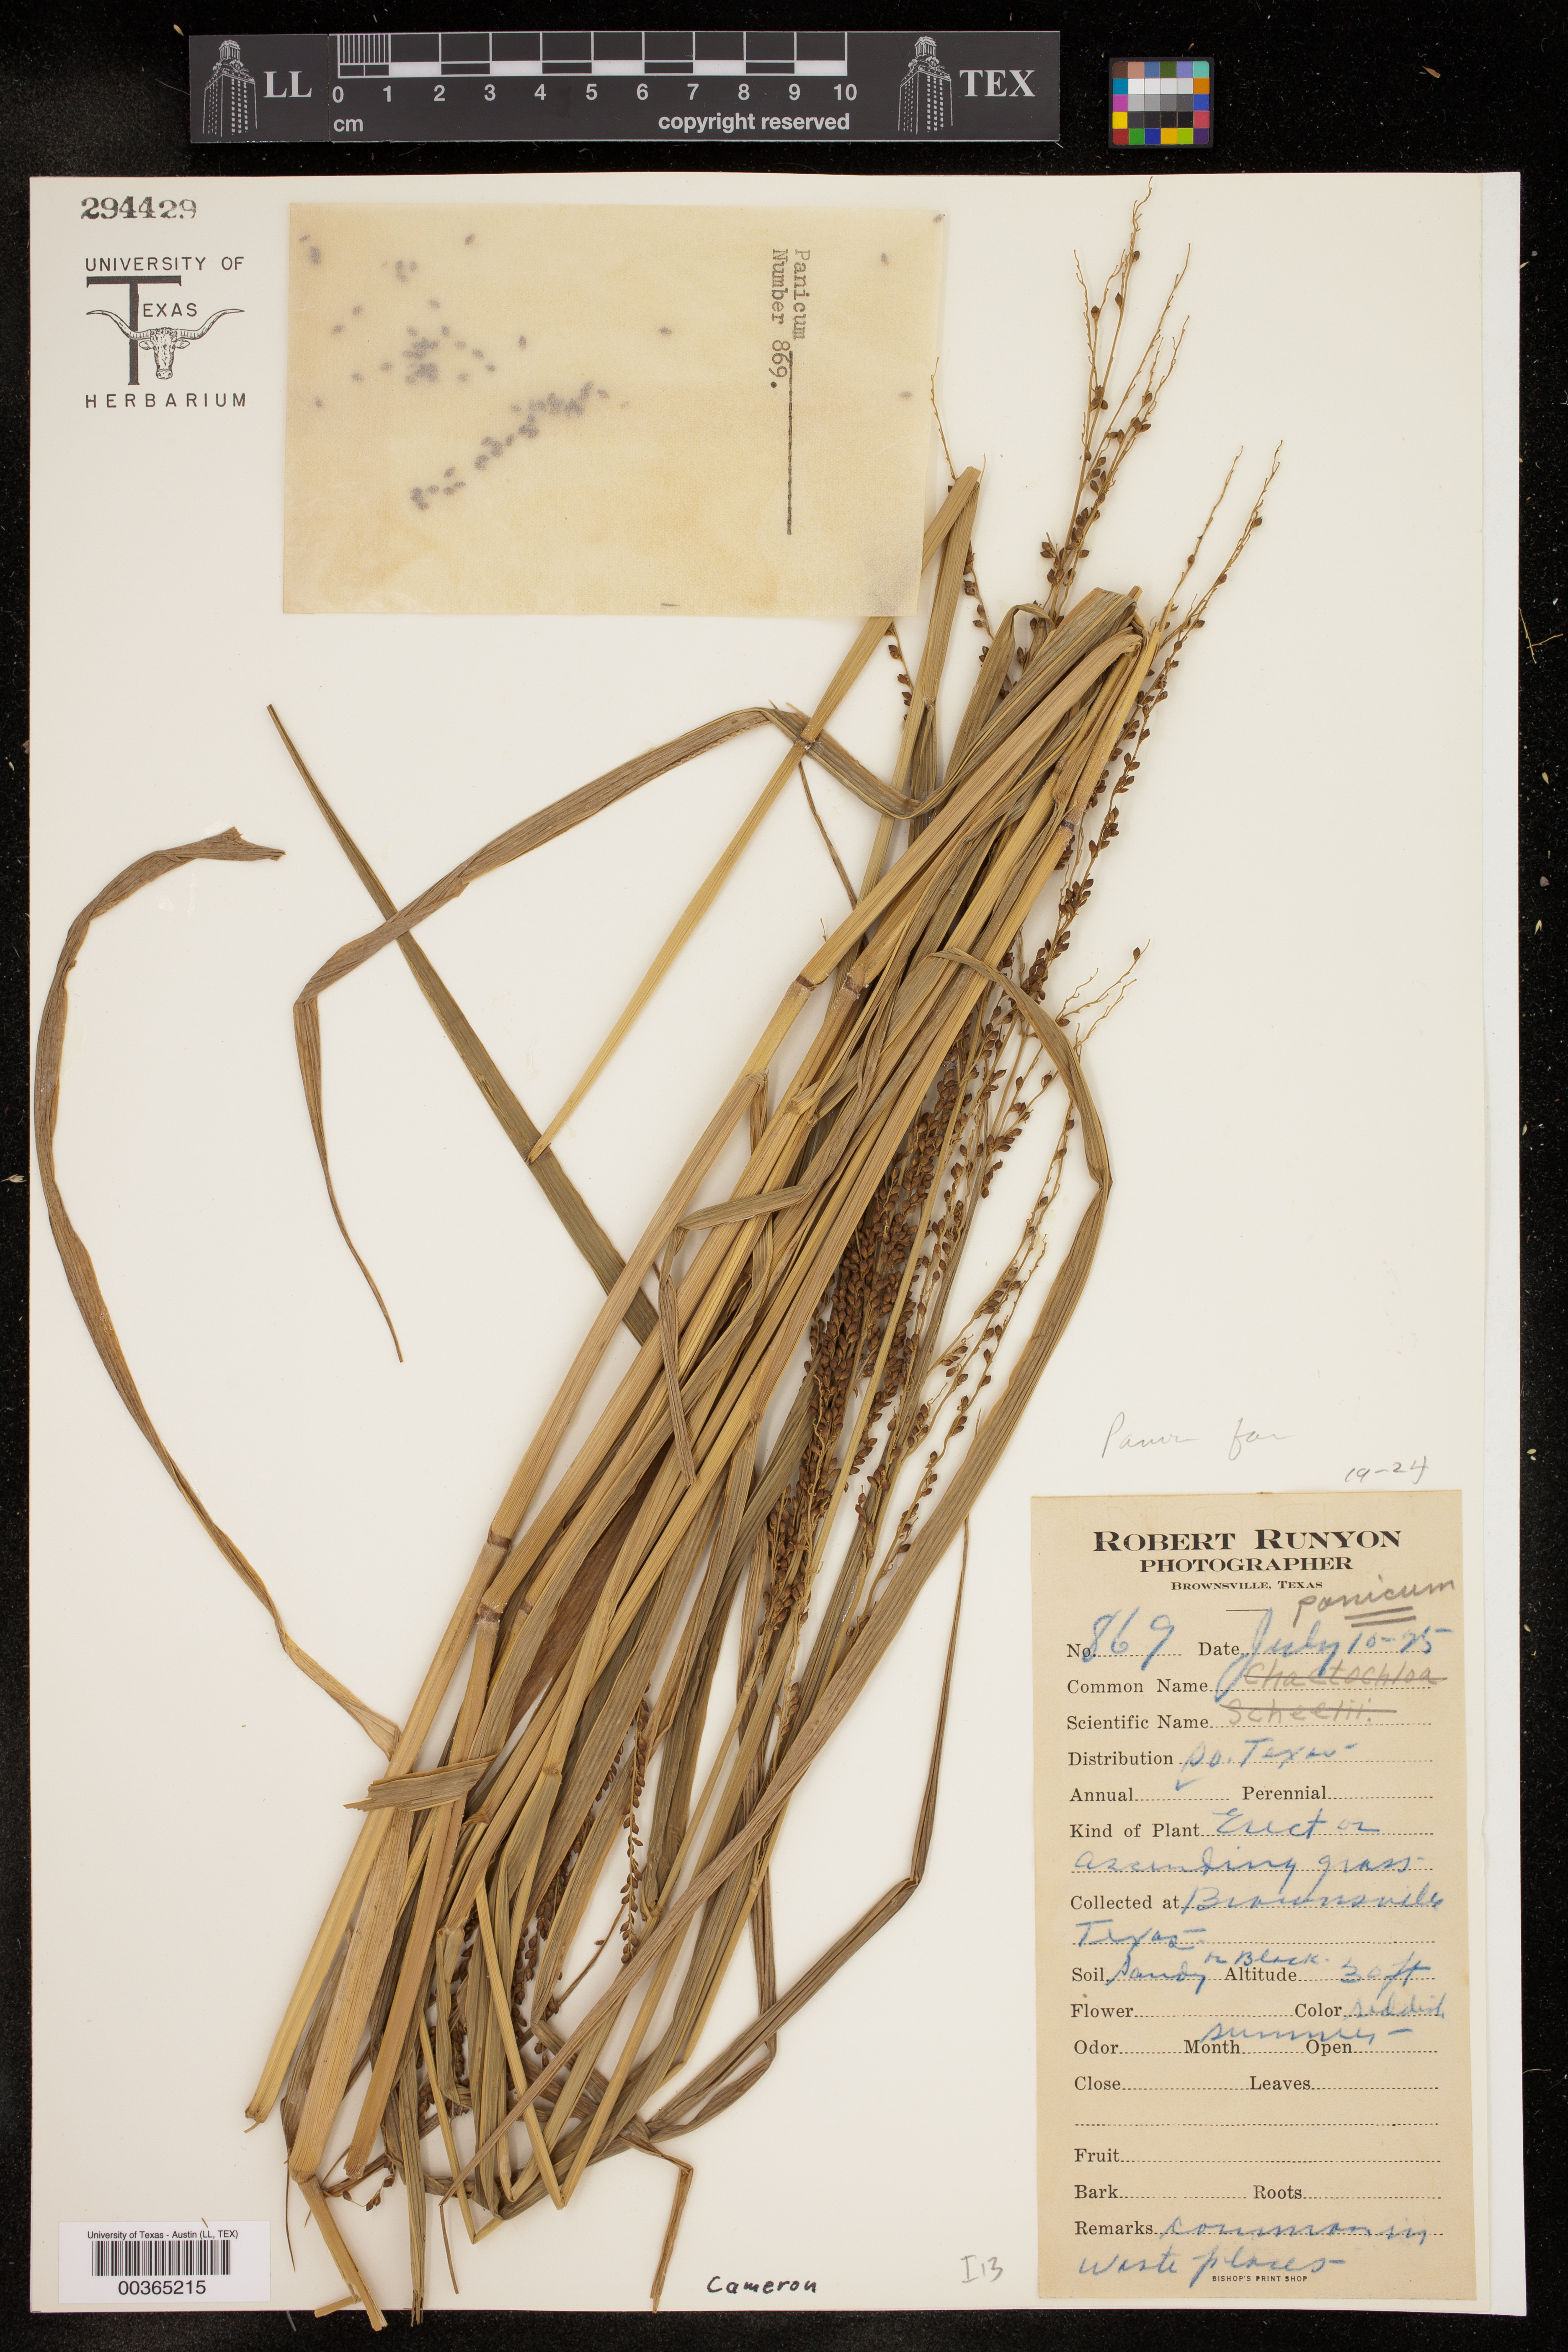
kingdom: Plantae
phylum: Tracheophyta
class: Liliopsida
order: Poales
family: Poaceae
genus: Panicum
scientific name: Panicum
